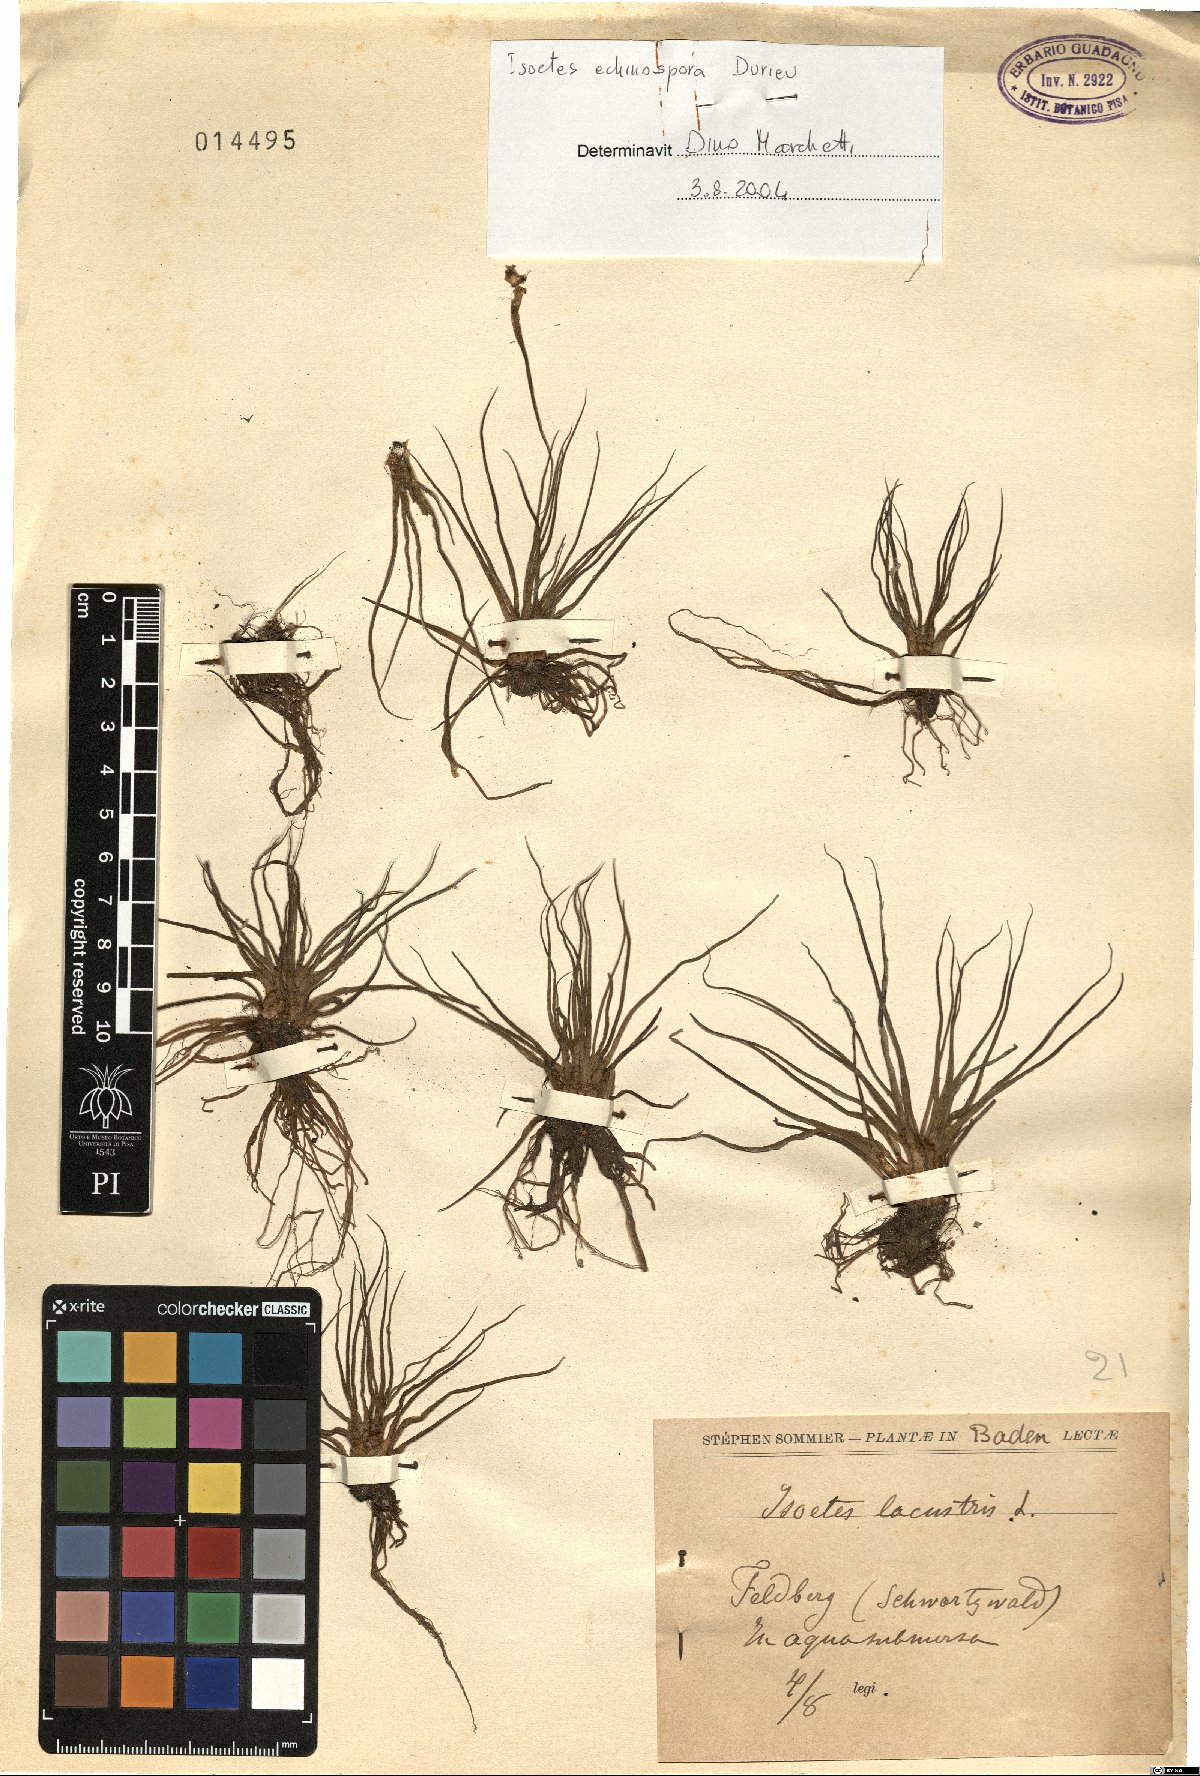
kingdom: Plantae
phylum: Tracheophyta
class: Lycopodiopsida
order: Isoetales
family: Isoetaceae
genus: Isoetes
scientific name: Isoetes echinospora
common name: Spring quillwort
